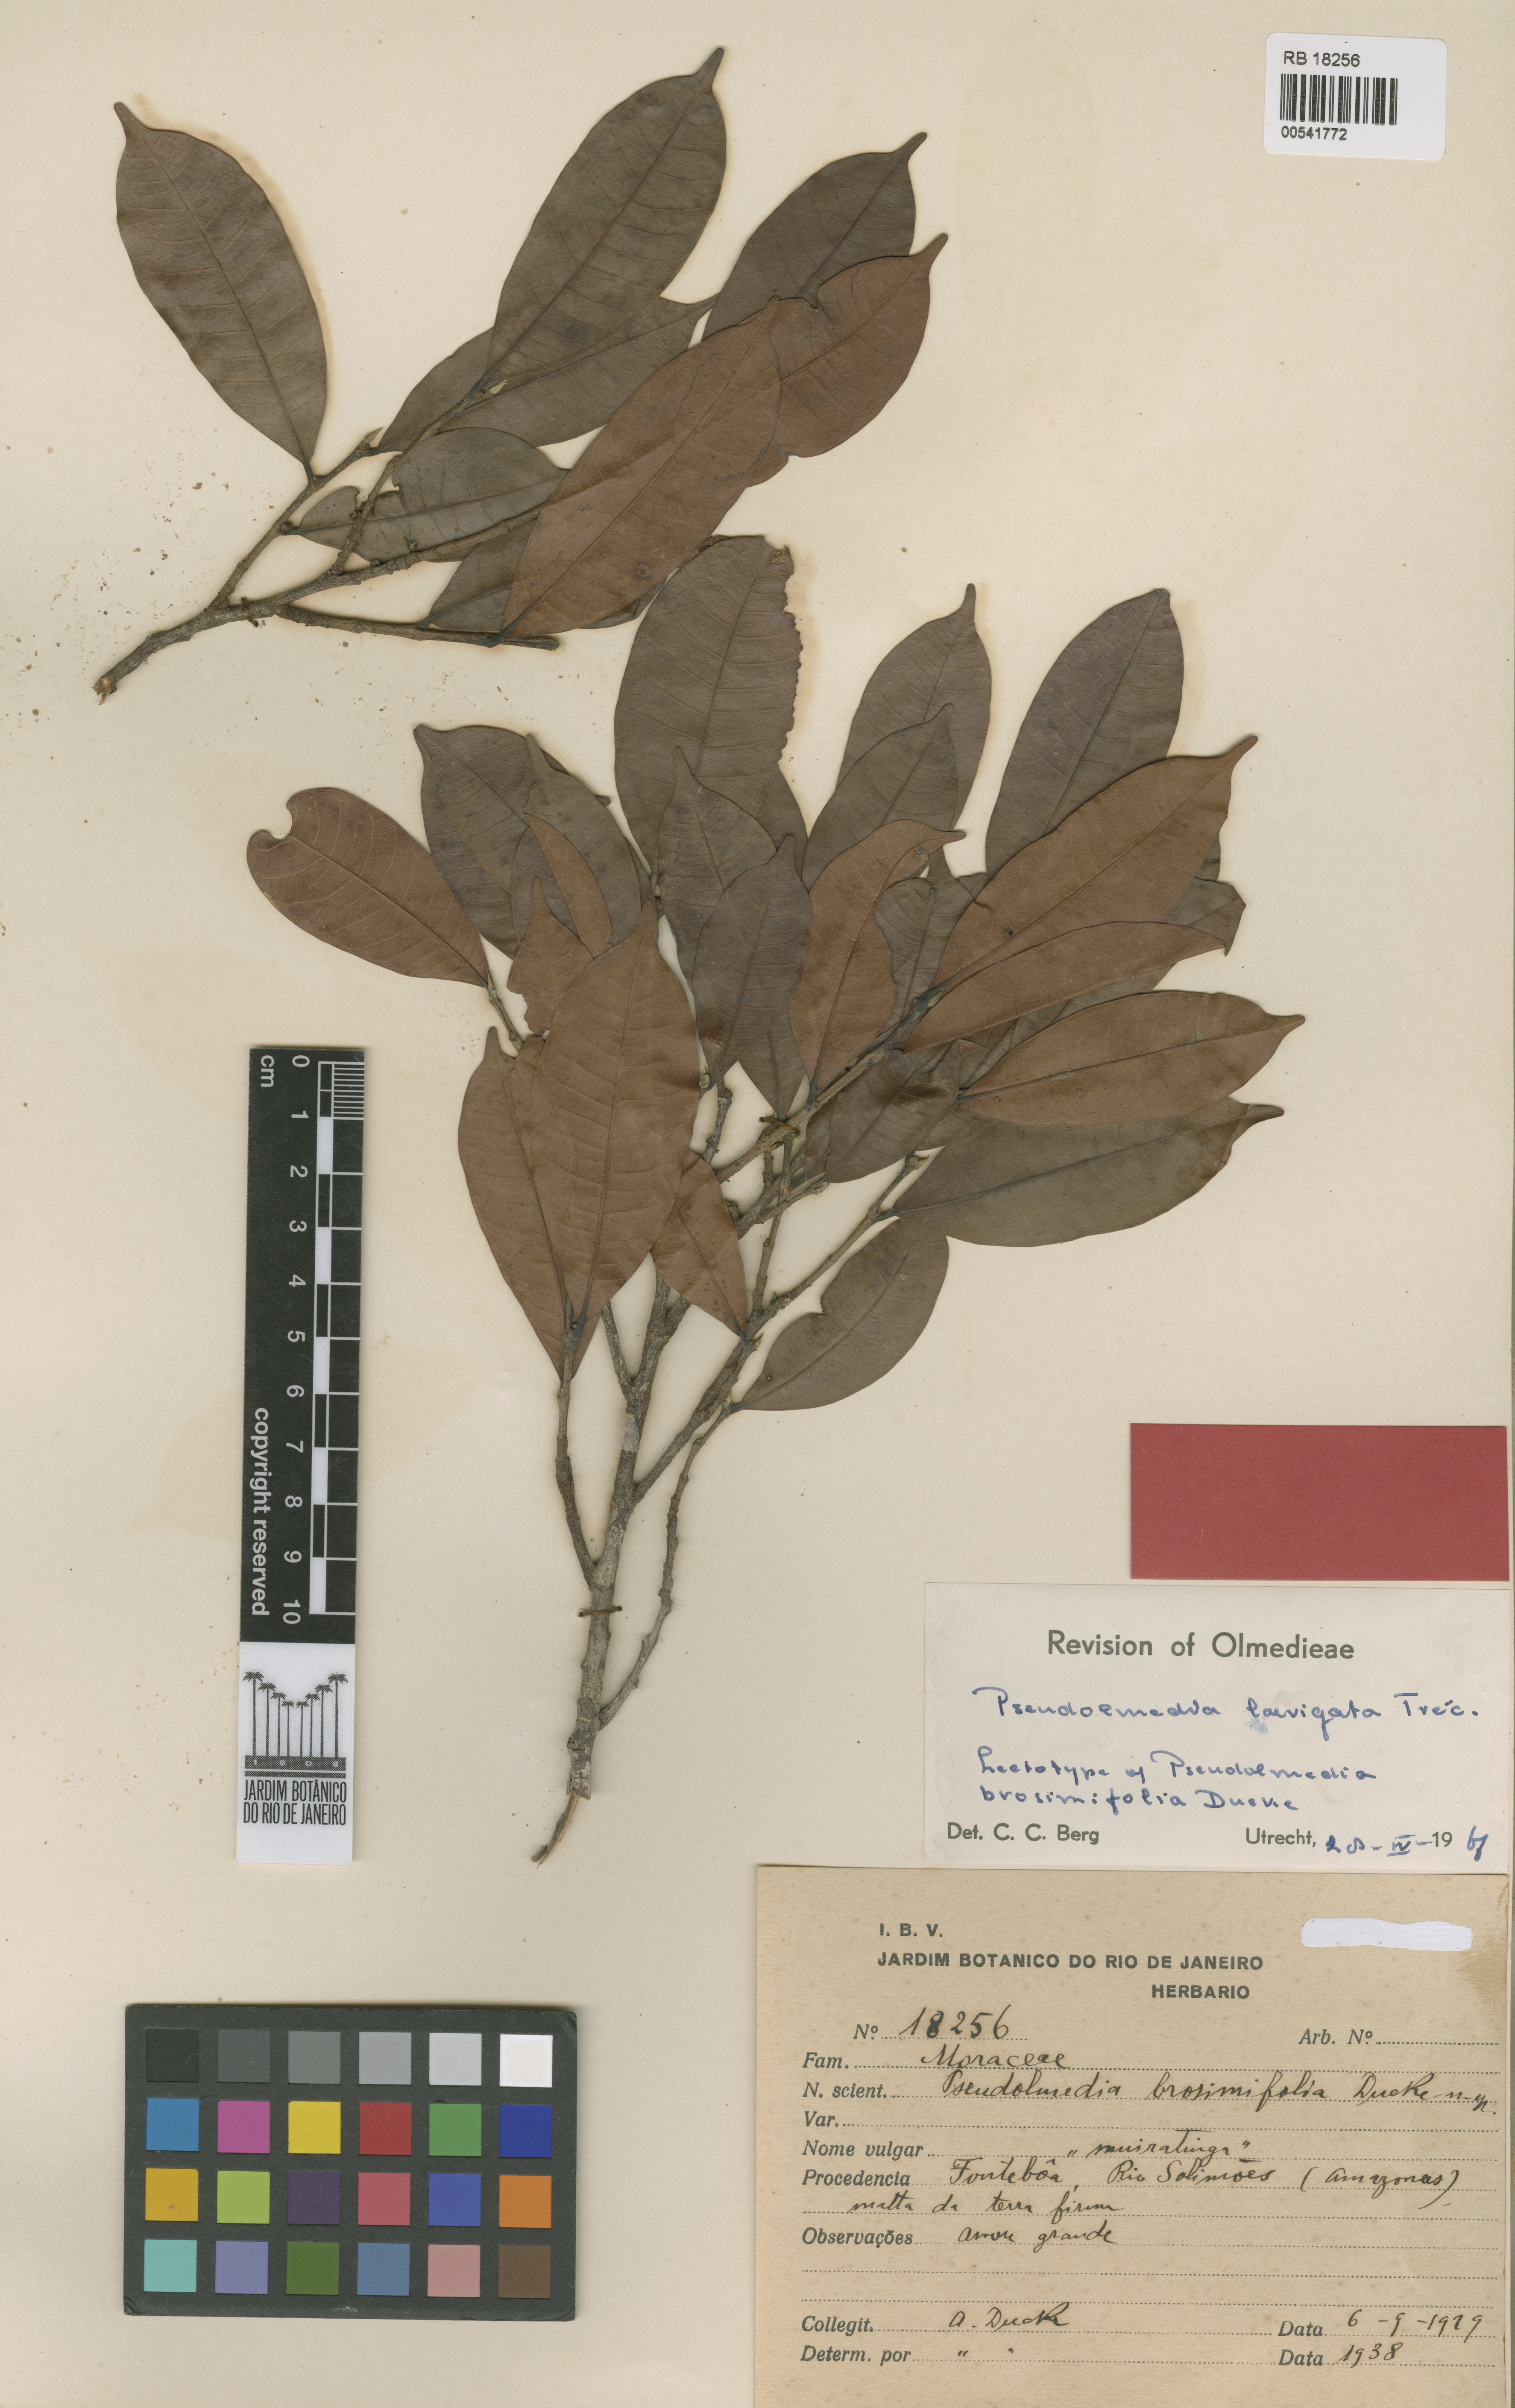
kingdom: Plantae
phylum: Tracheophyta
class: Magnoliopsida
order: Rosales
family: Moraceae
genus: Pseudolmedia
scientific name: Pseudolmedia laevigata
